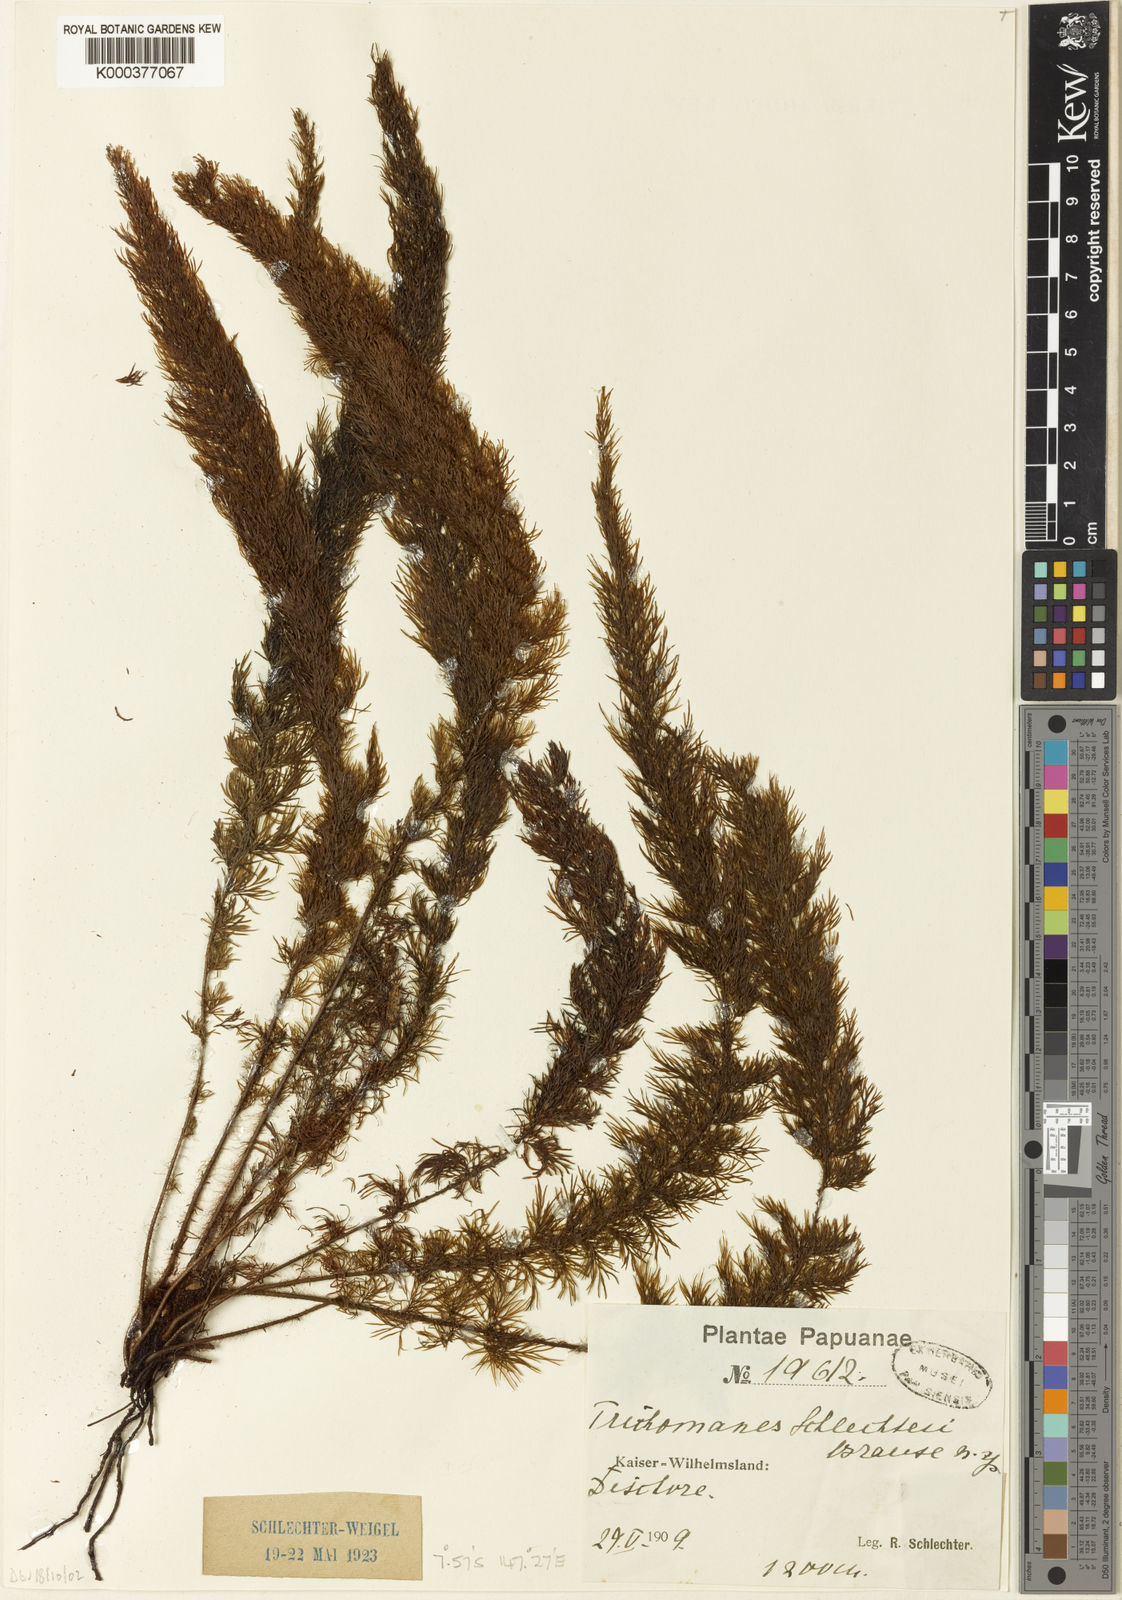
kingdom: Plantae
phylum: Tracheophyta
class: Polypodiopsida
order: Hymenophyllales
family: Hymenophyllaceae
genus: Abrodictyum
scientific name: Abrodictyum schlechteri
